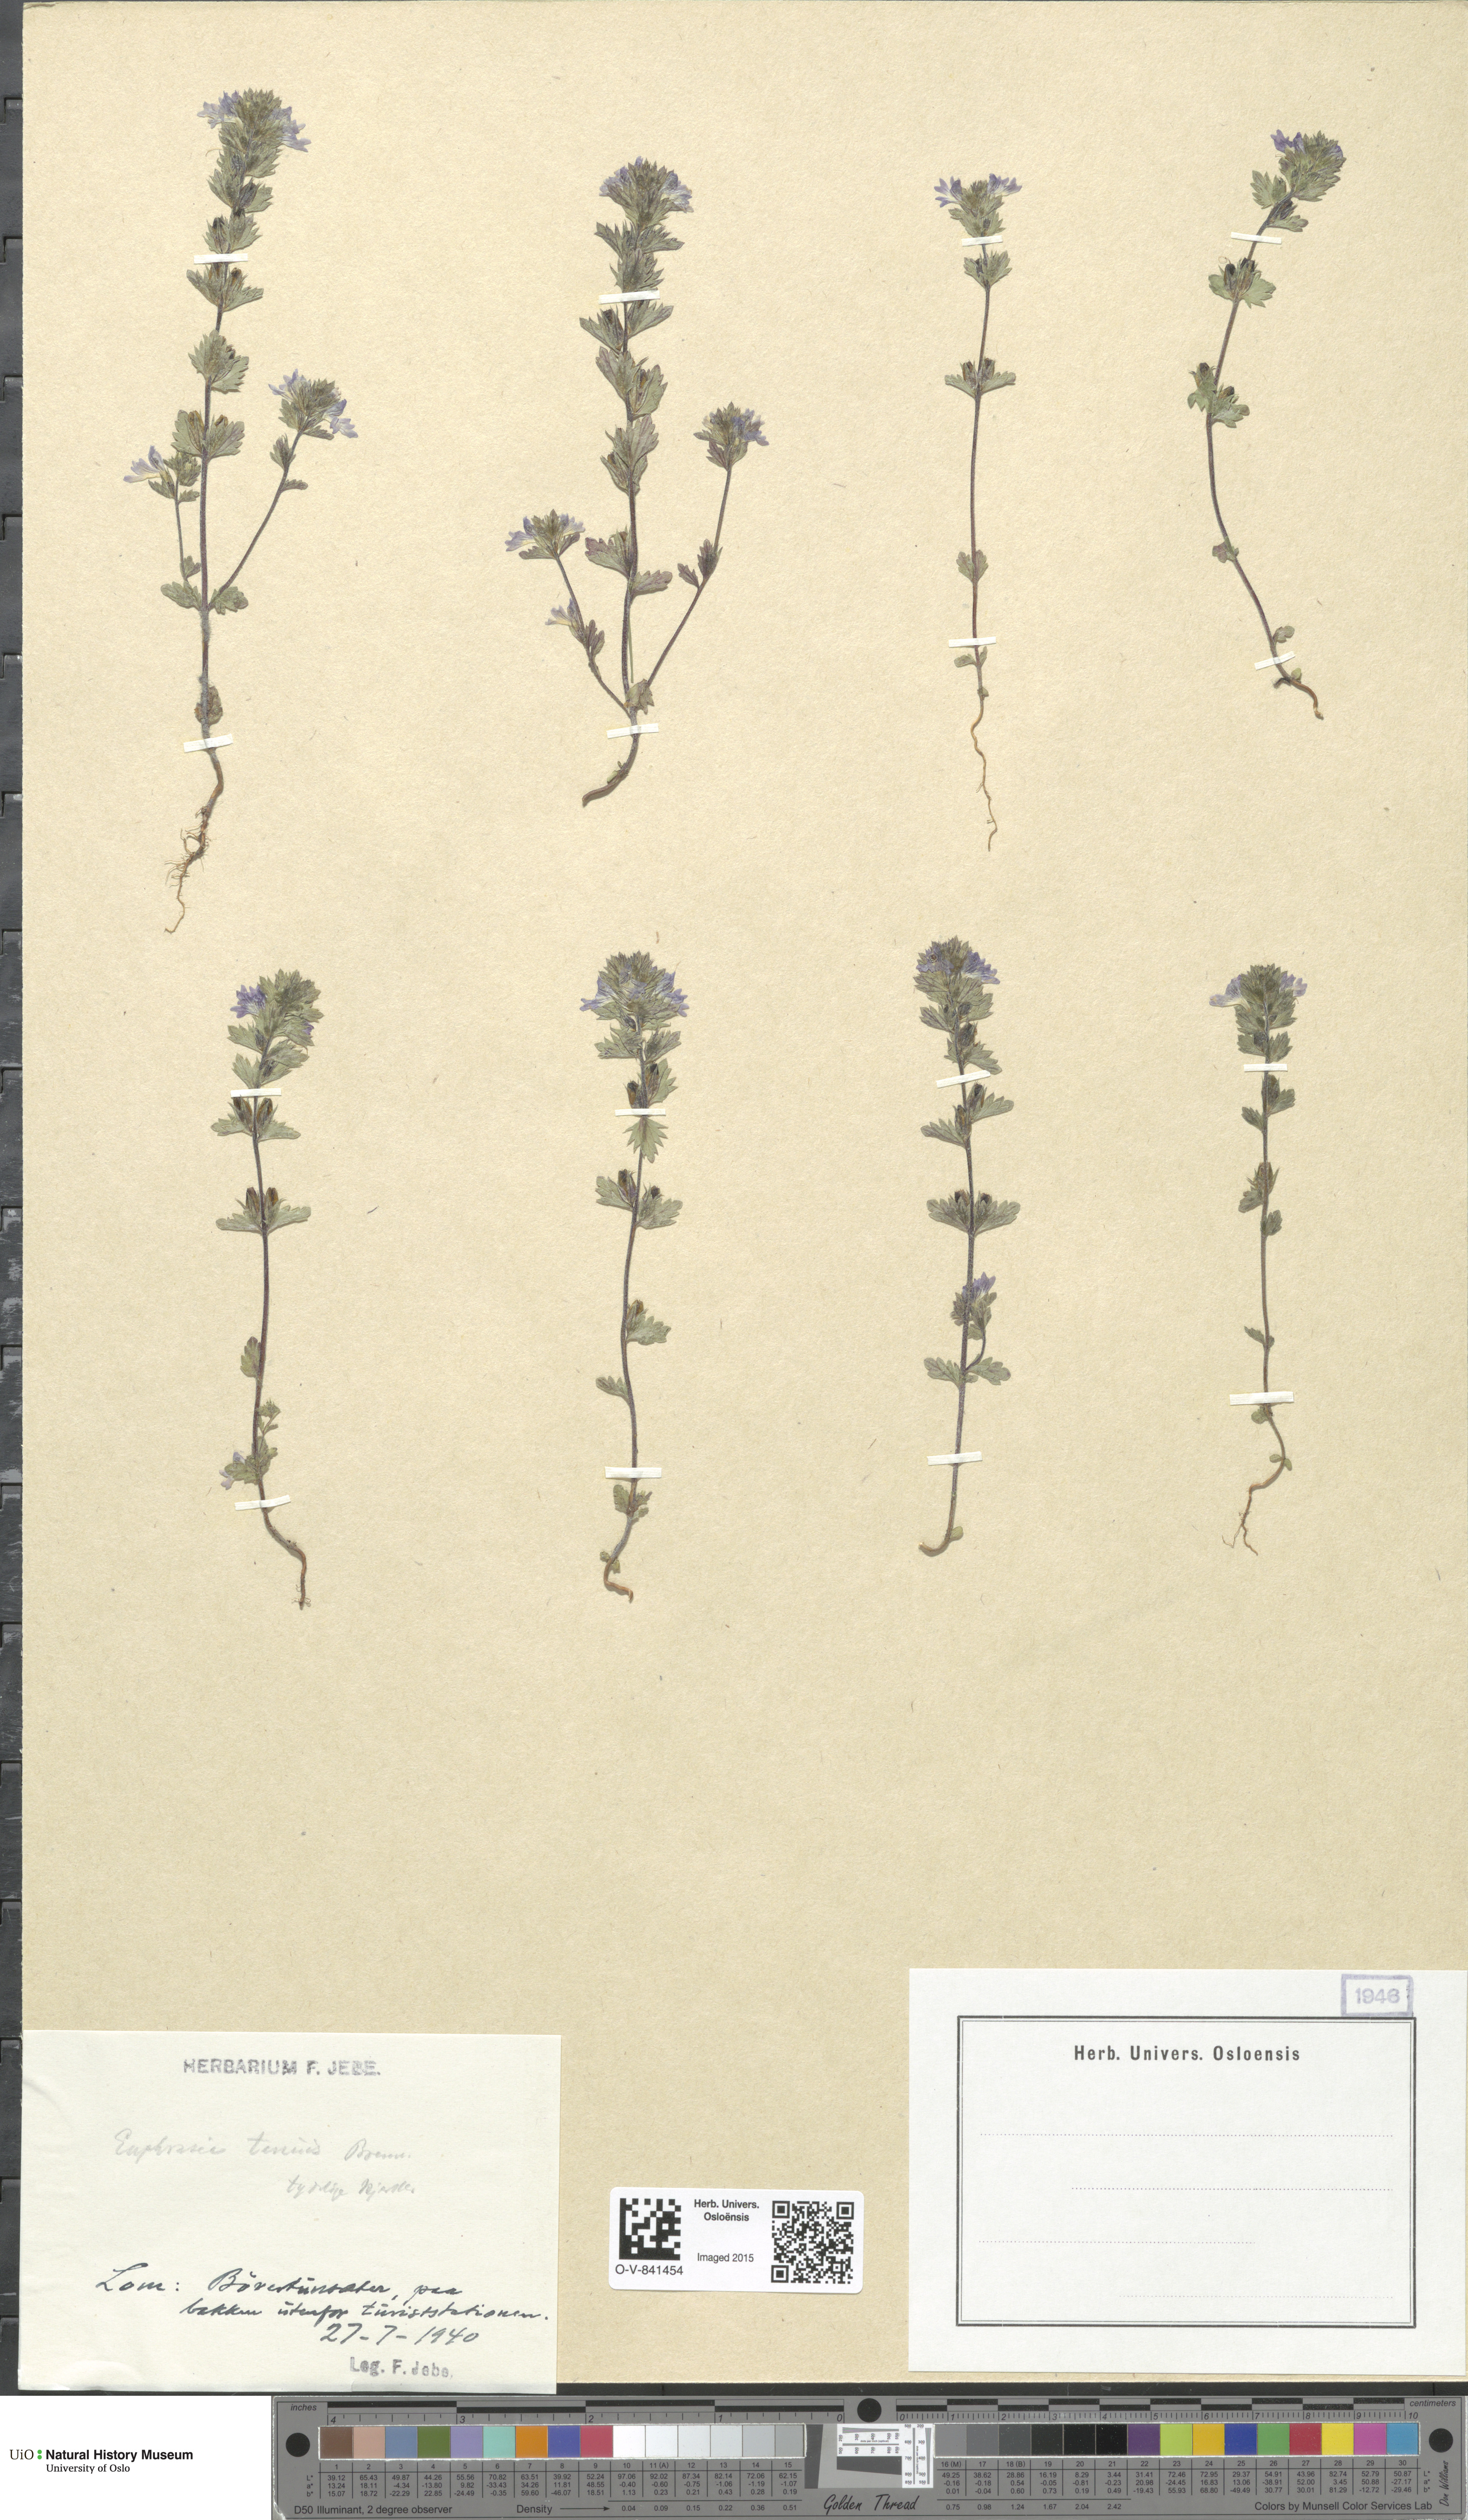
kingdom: Plantae
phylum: Tracheophyta
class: Magnoliopsida
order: Lamiales
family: Orobanchaceae
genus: Euphrasia
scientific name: Euphrasia vernalis
